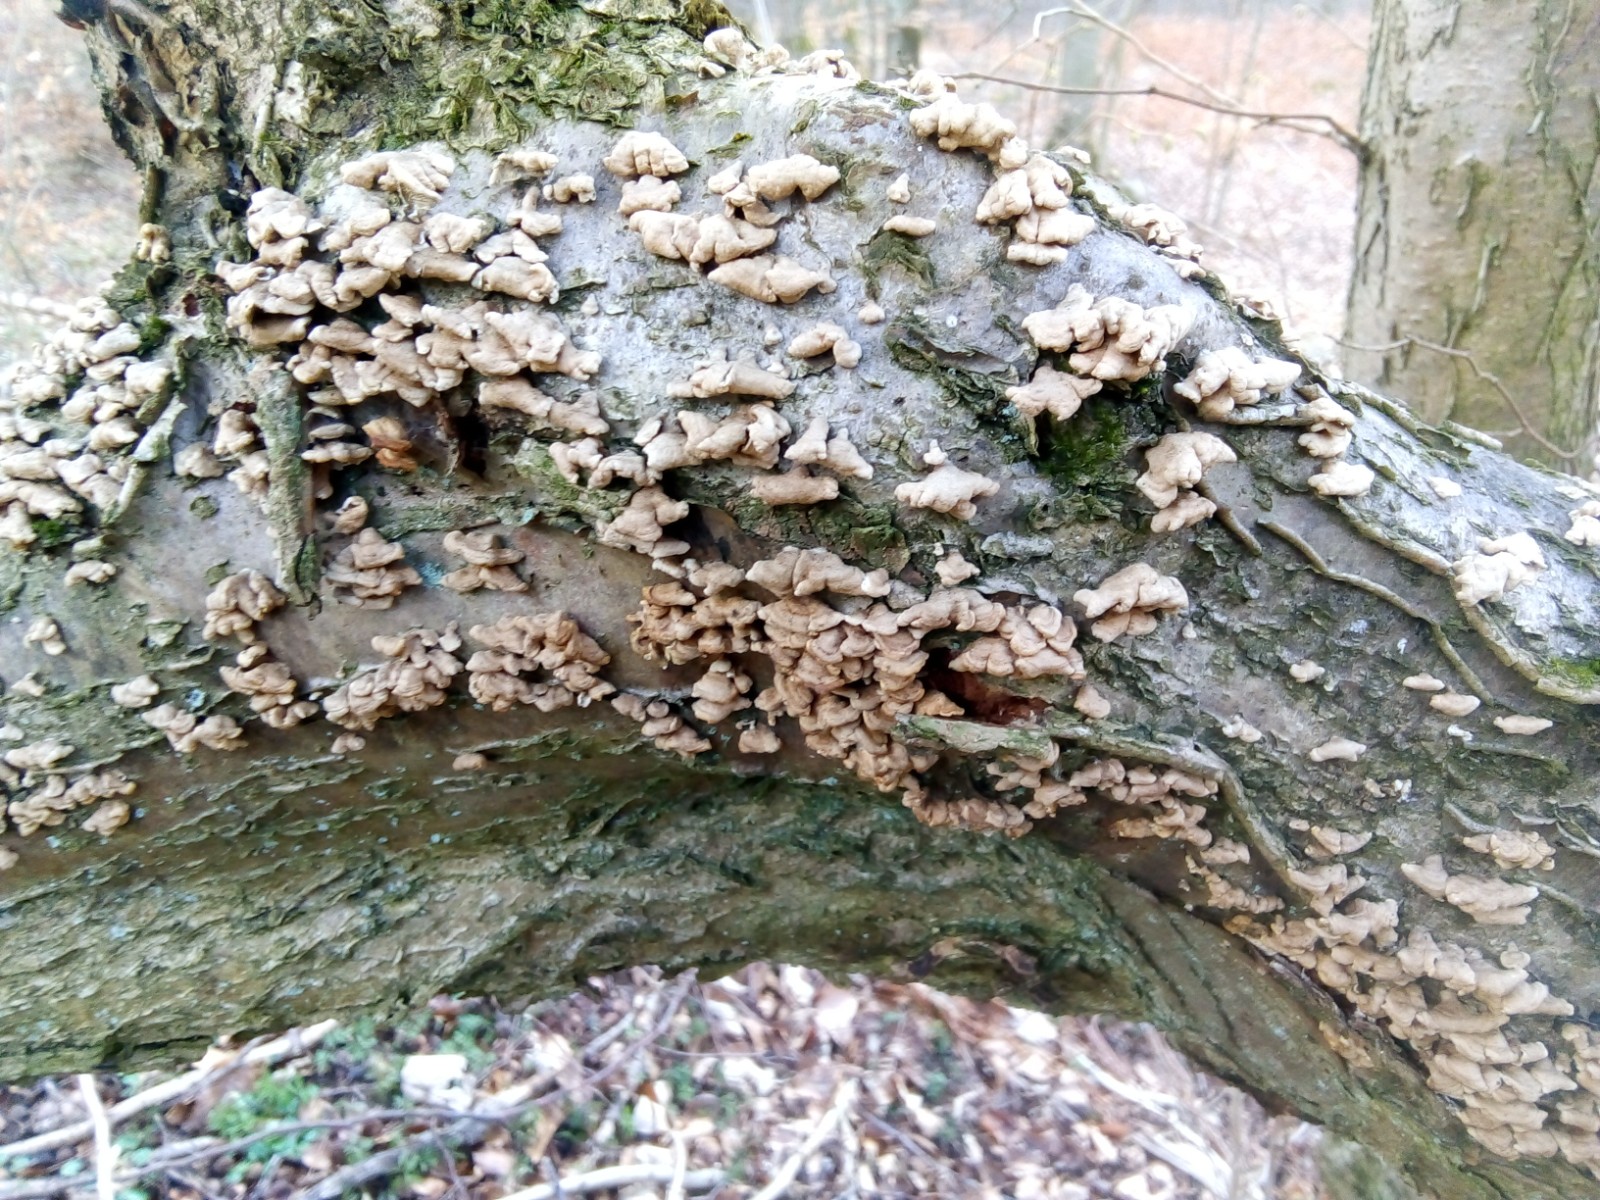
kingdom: Fungi
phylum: Basidiomycota
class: Agaricomycetes
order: Amylocorticiales
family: Amylocorticiaceae
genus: Plicaturopsis
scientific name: Plicaturopsis crispa
